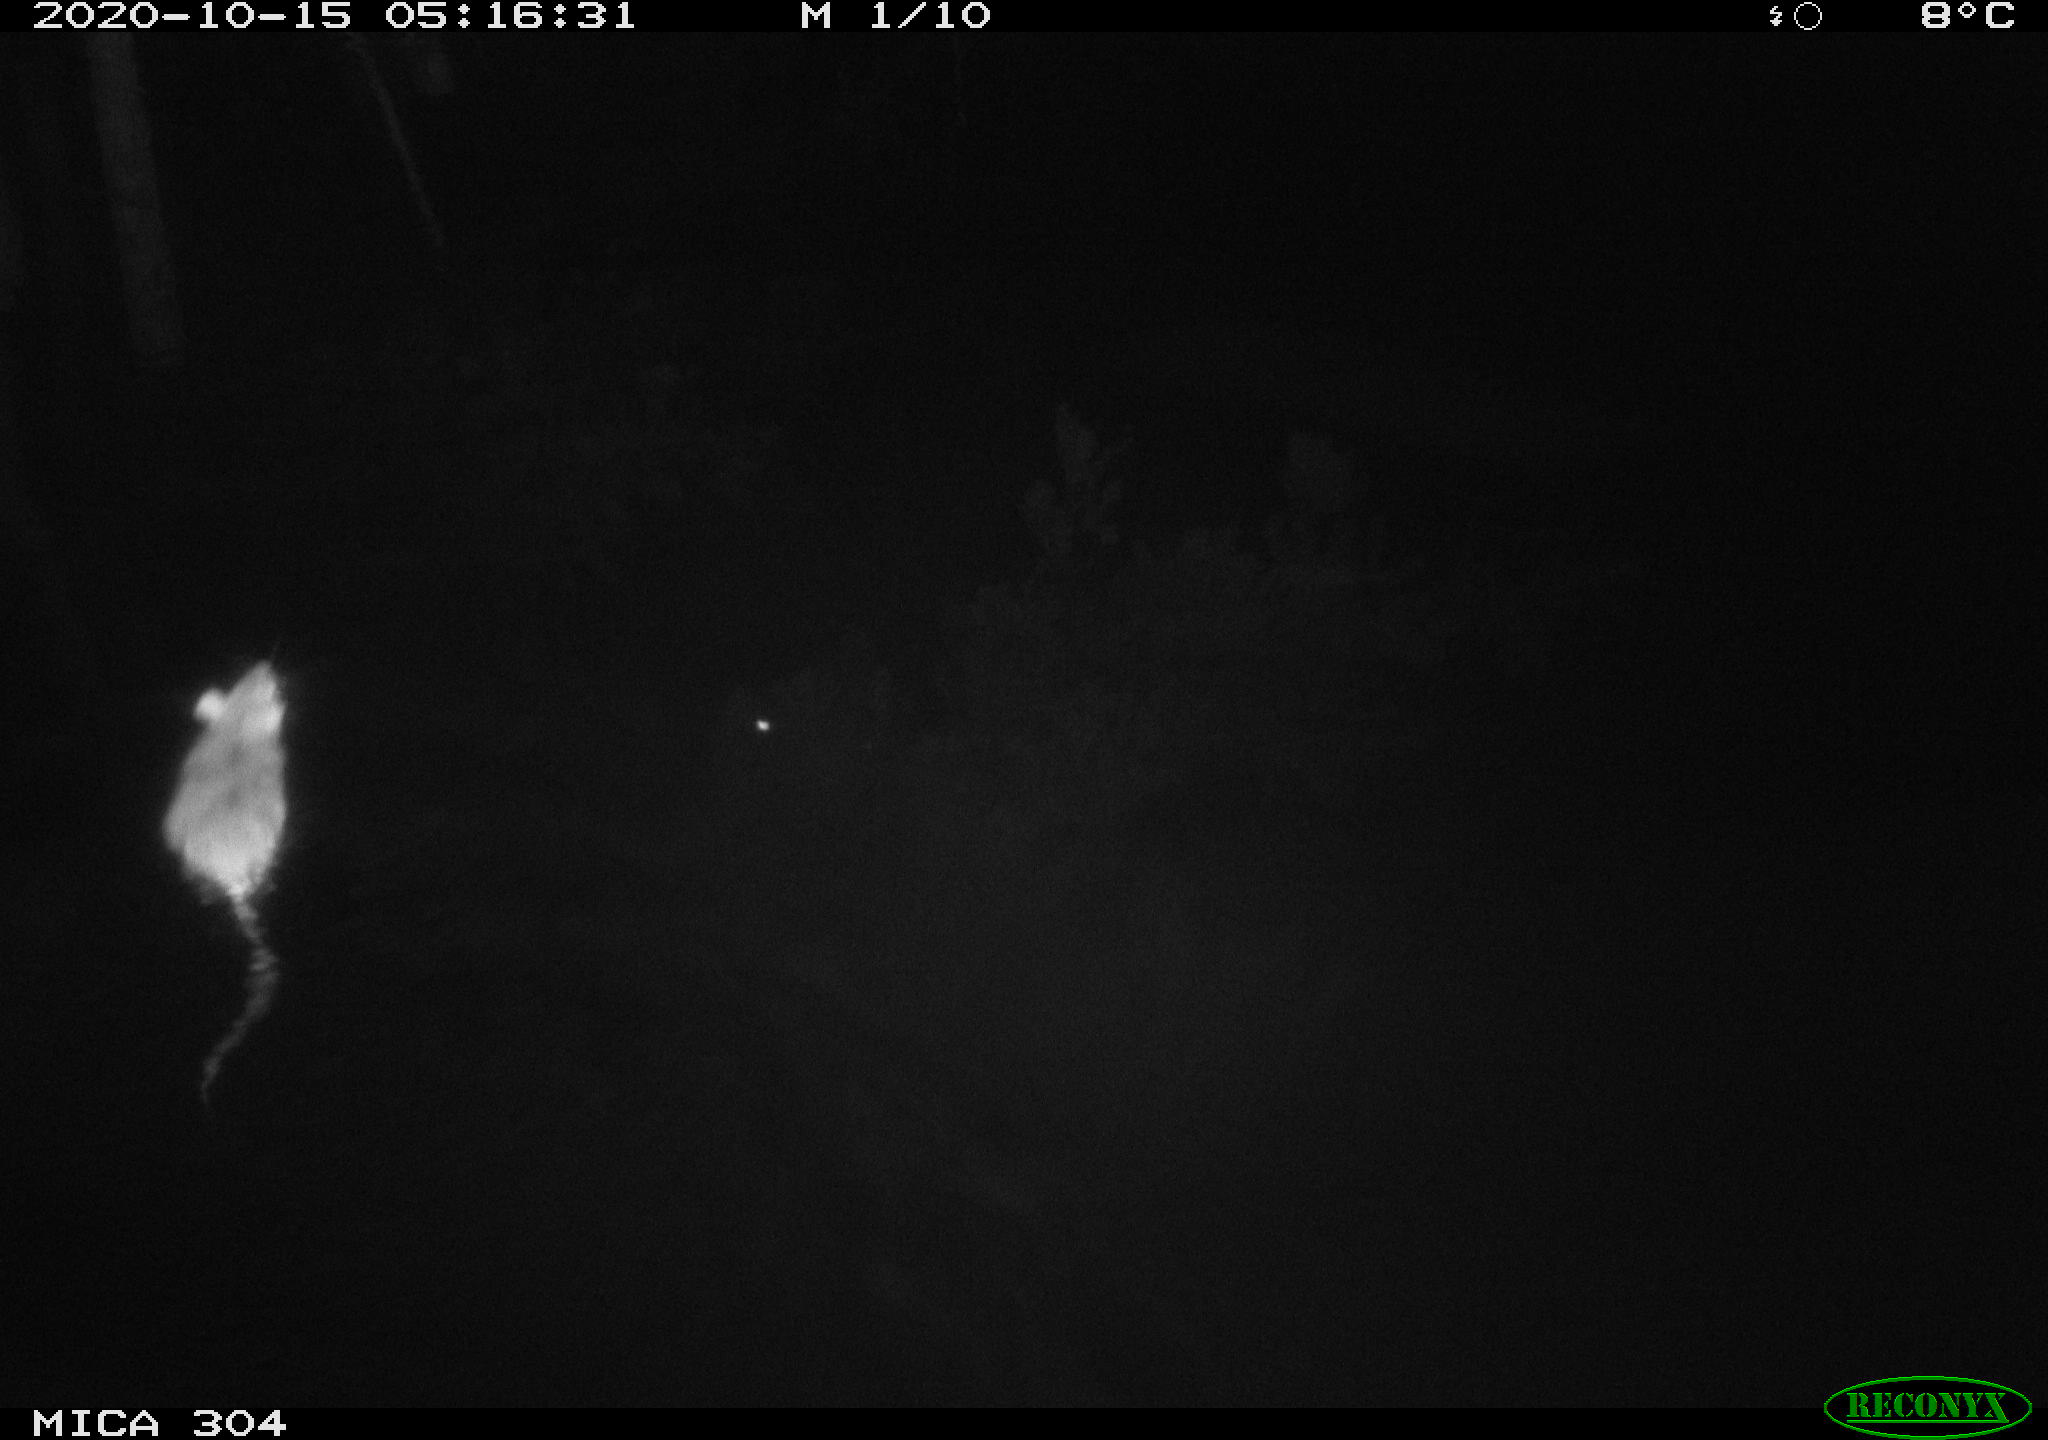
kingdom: Animalia
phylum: Chordata
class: Mammalia
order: Rodentia
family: Muridae
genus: Rattus
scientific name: Rattus norvegicus
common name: Brown rat
